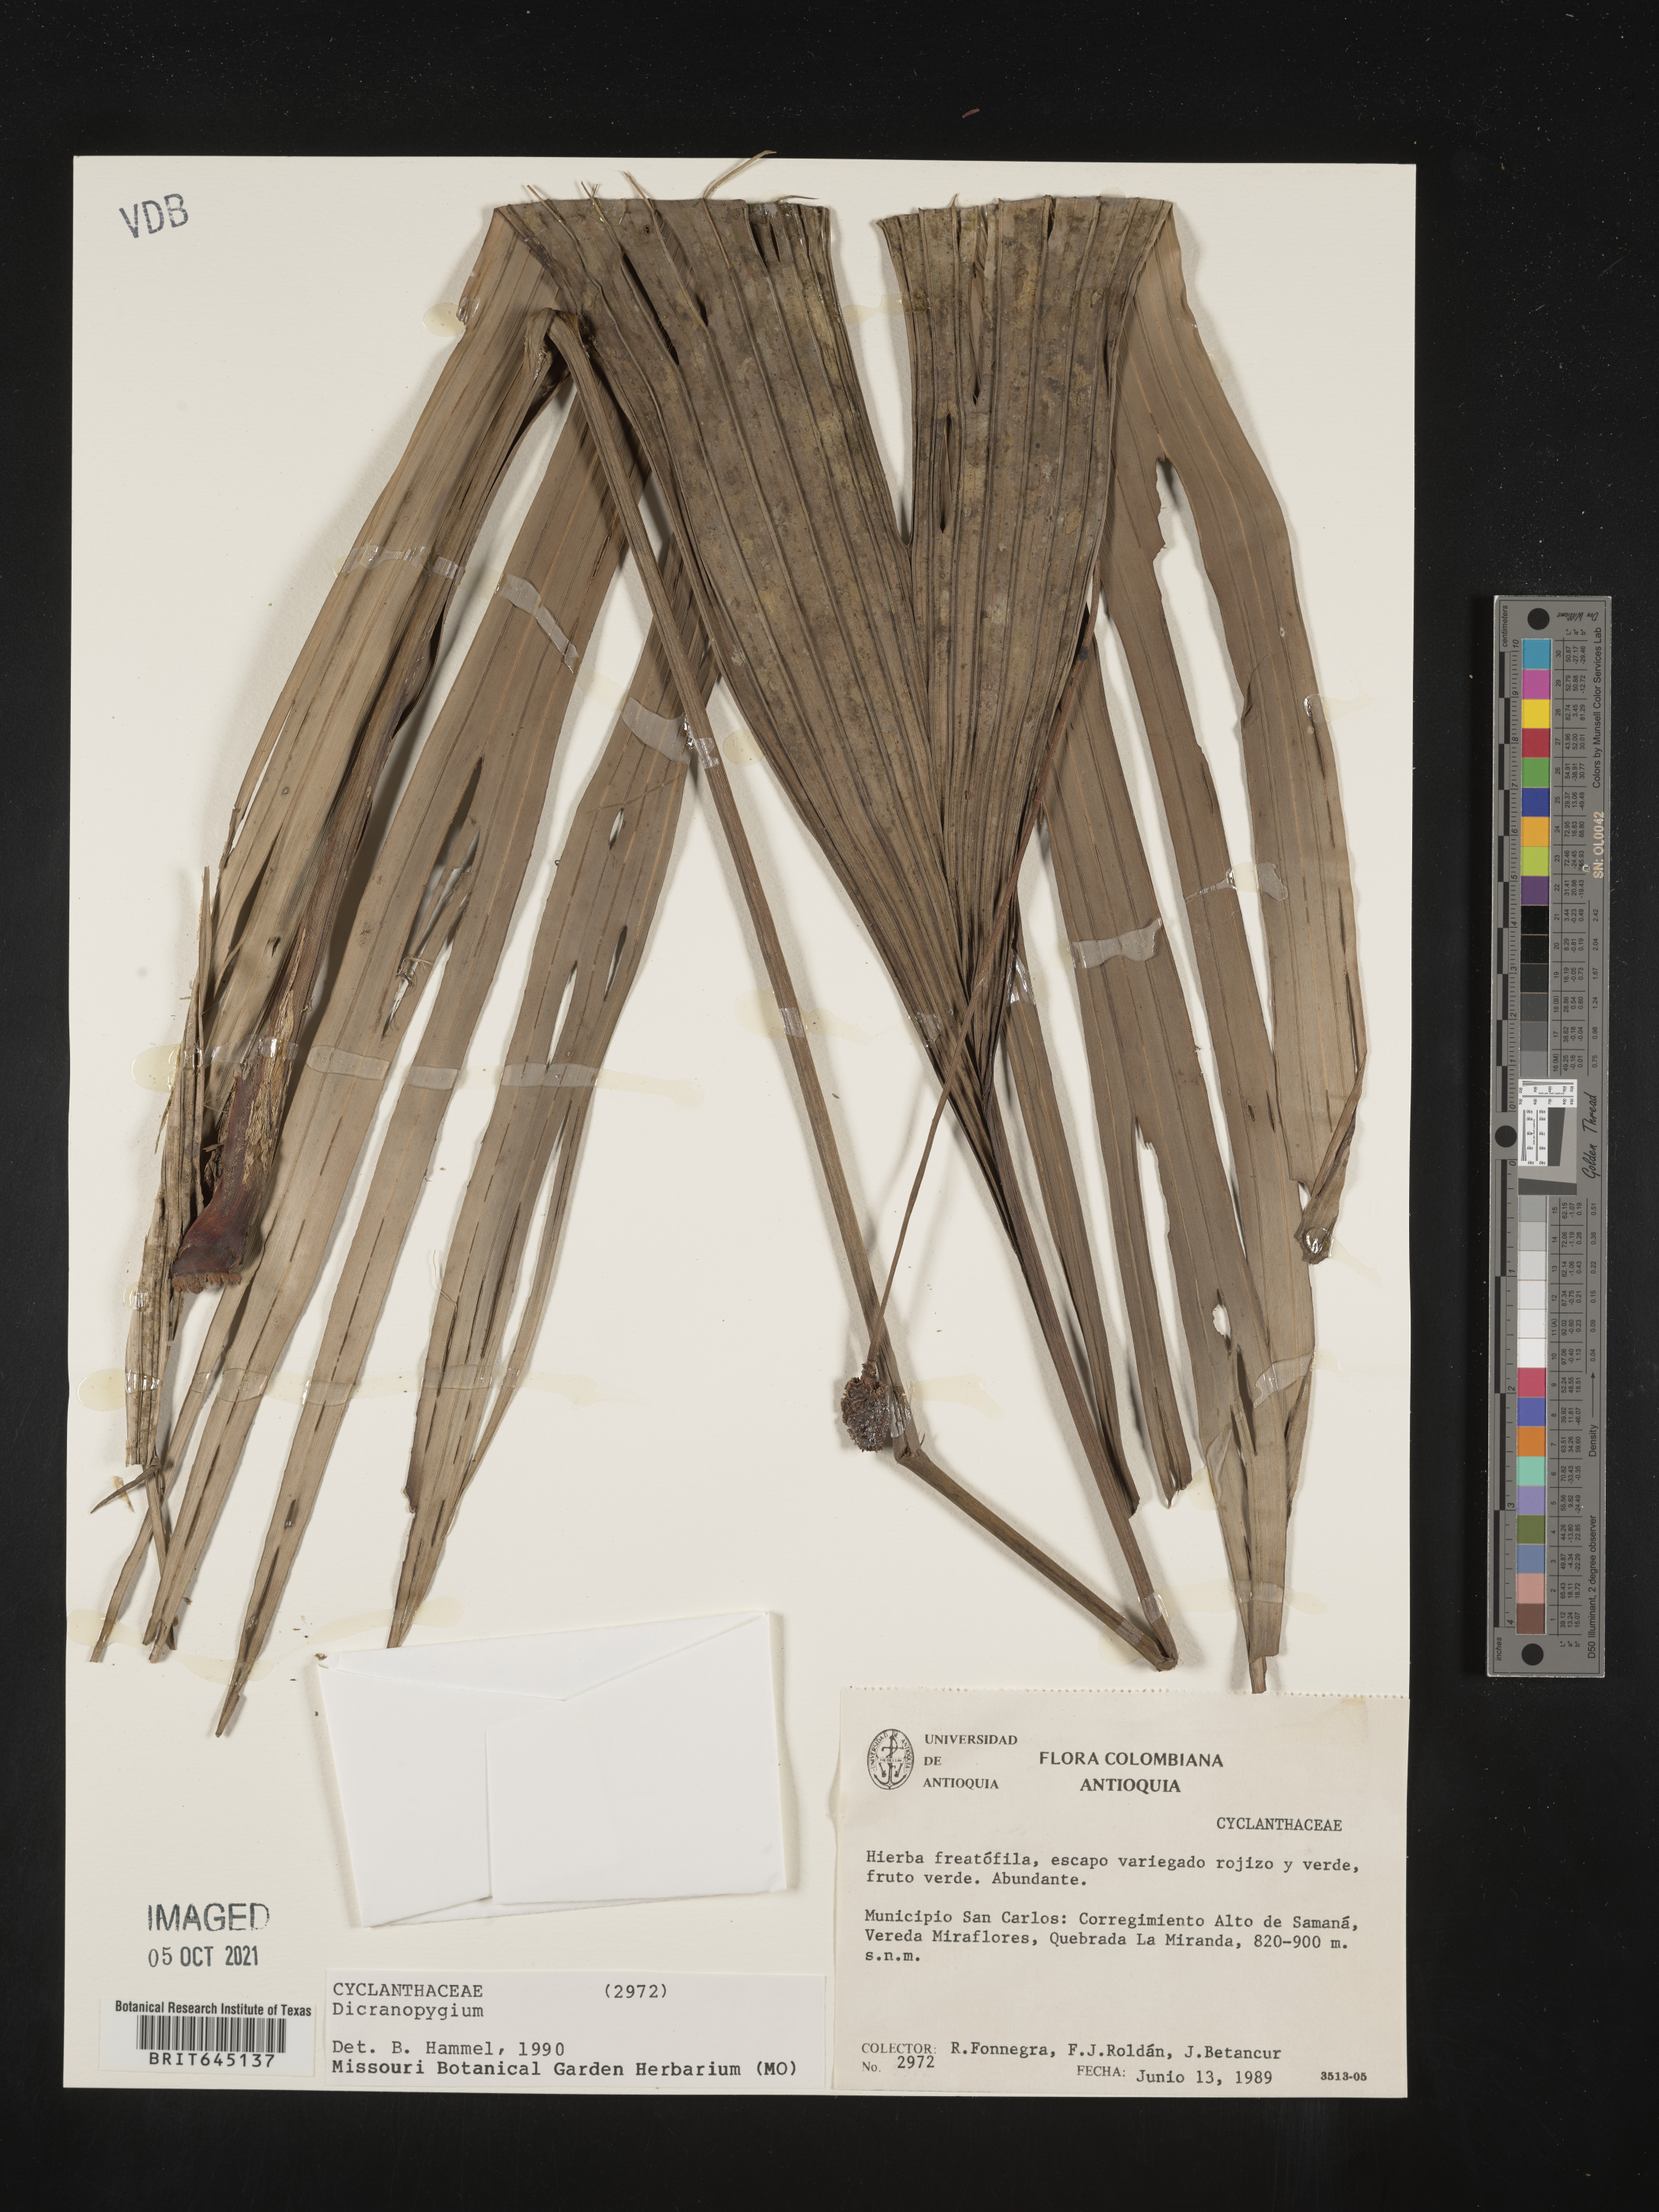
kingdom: Plantae
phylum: Tracheophyta
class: Liliopsida
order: Pandanales
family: Cyclanthaceae
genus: Dicranopygium
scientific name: Dicranopygium
